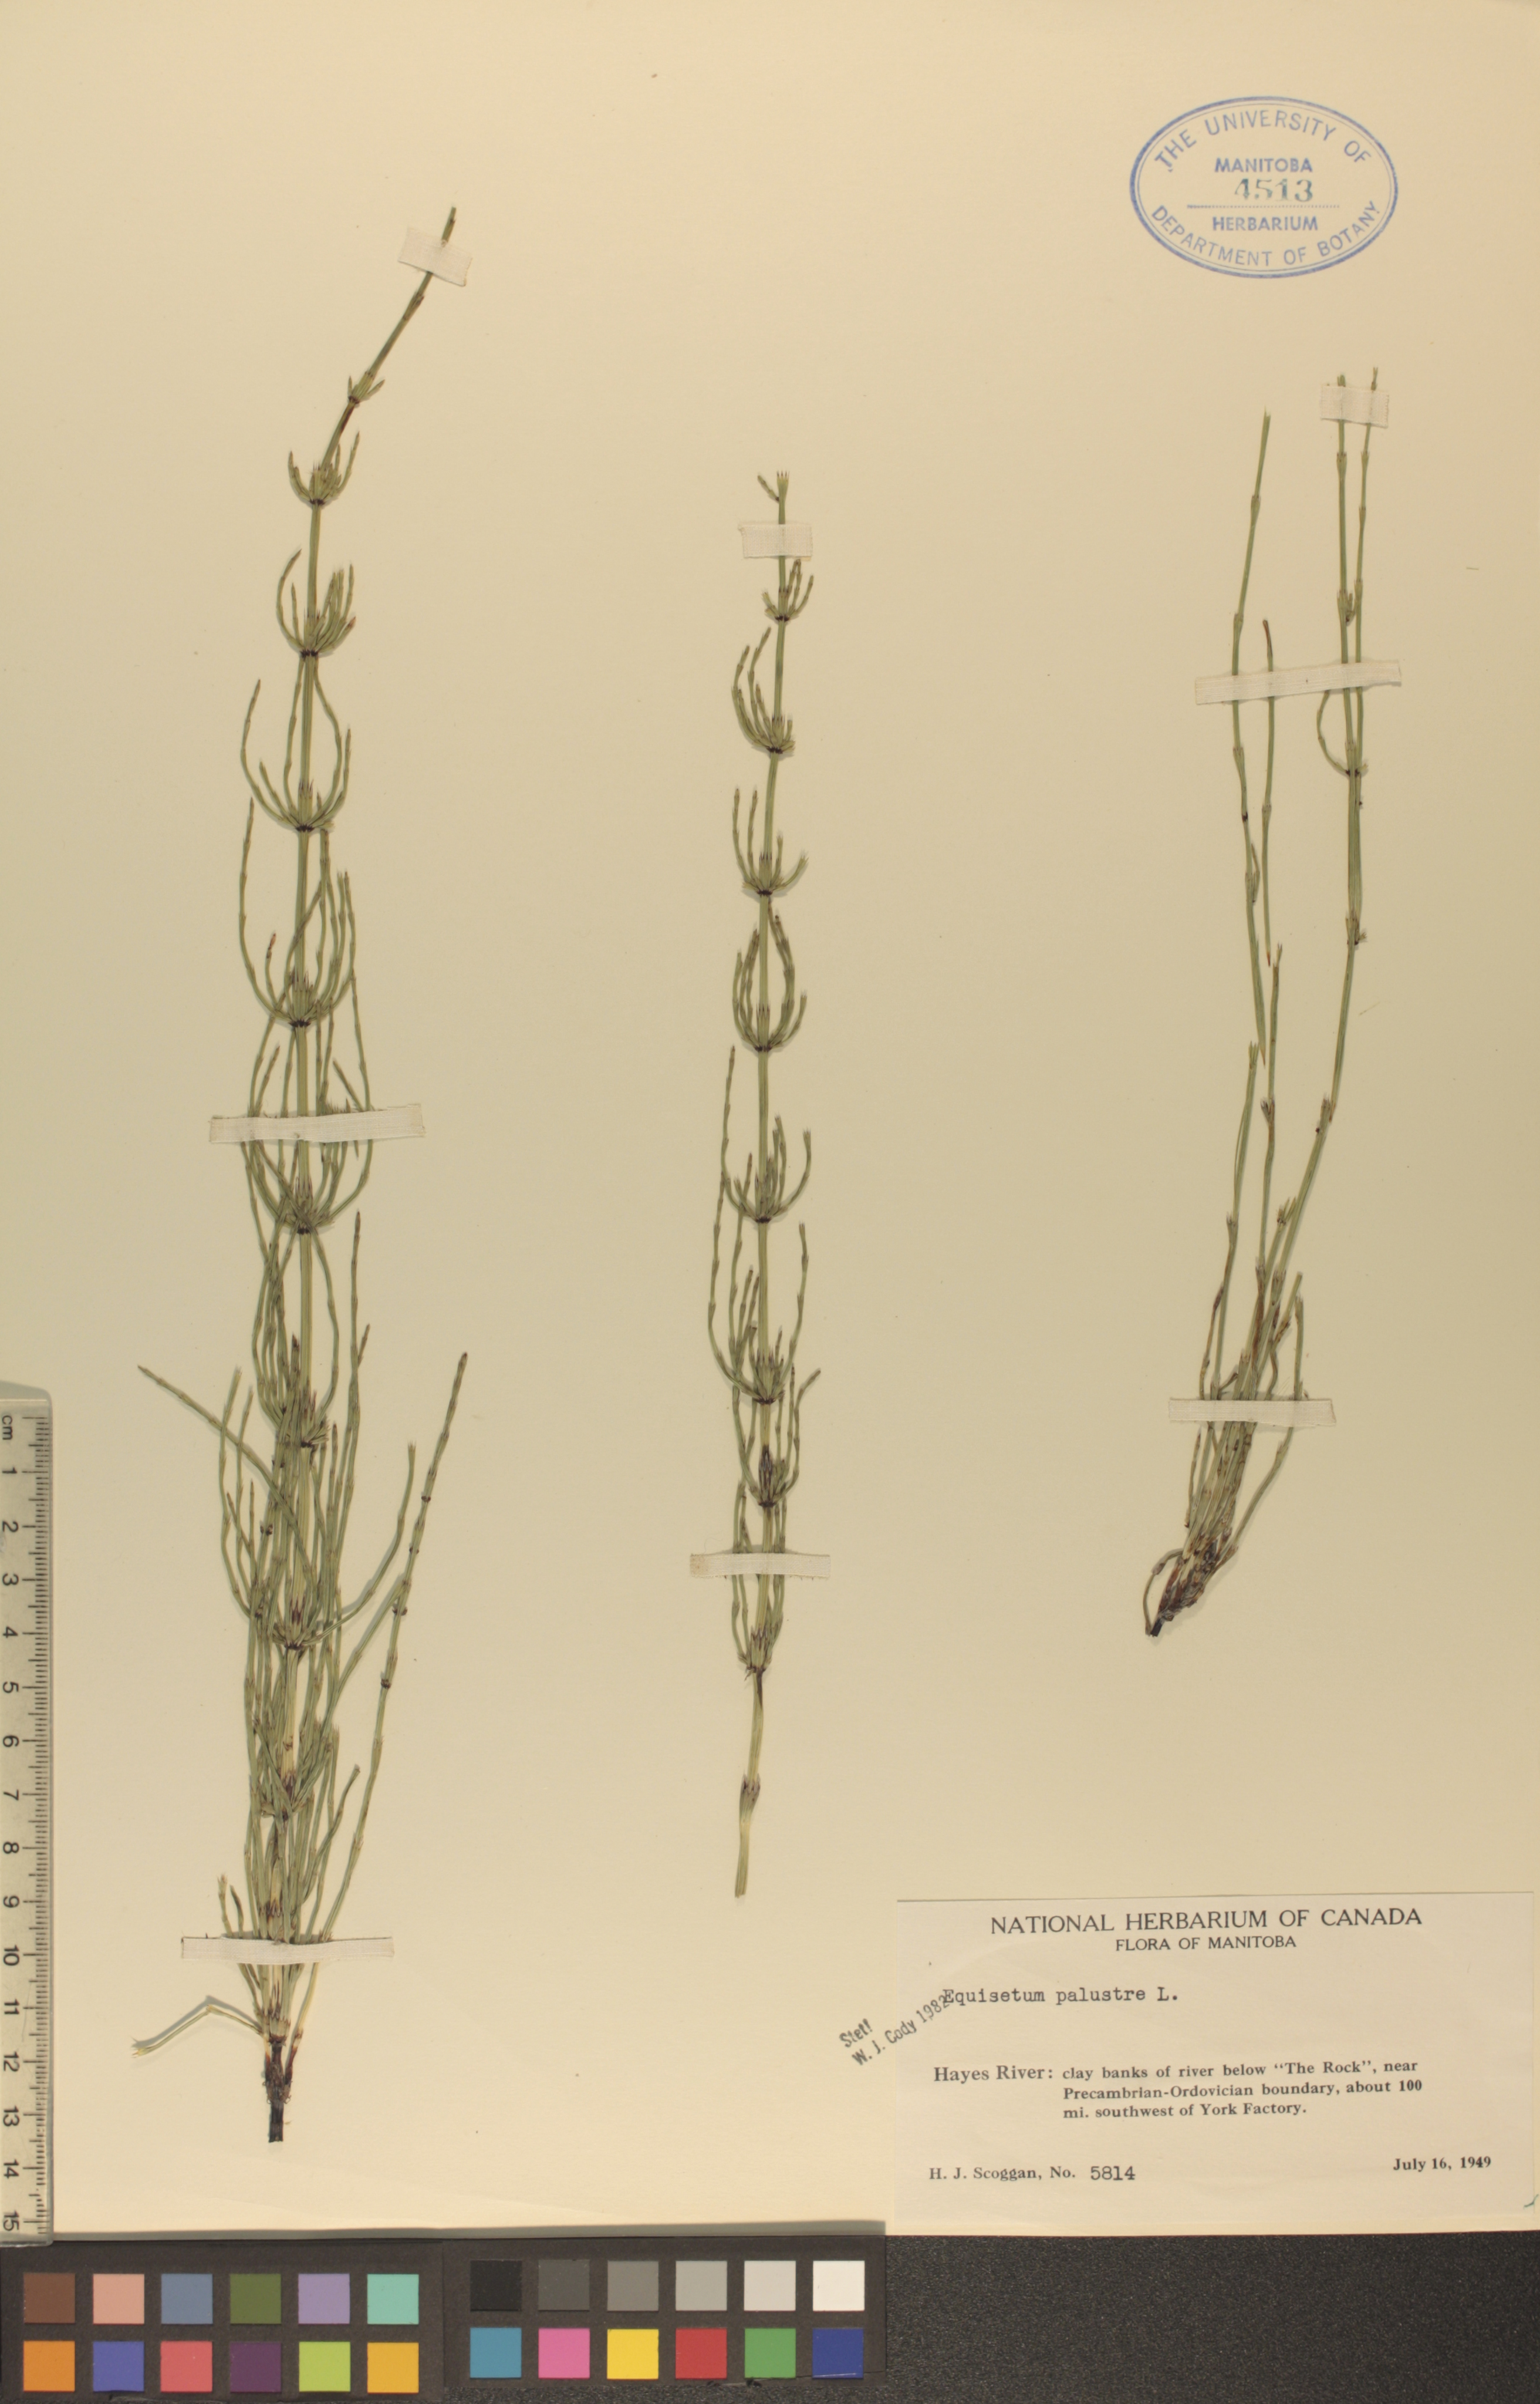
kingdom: Plantae
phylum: Tracheophyta
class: Polypodiopsida
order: Equisetales
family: Equisetaceae
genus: Equisetum
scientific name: Equisetum palustre
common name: Marsh horsetail
